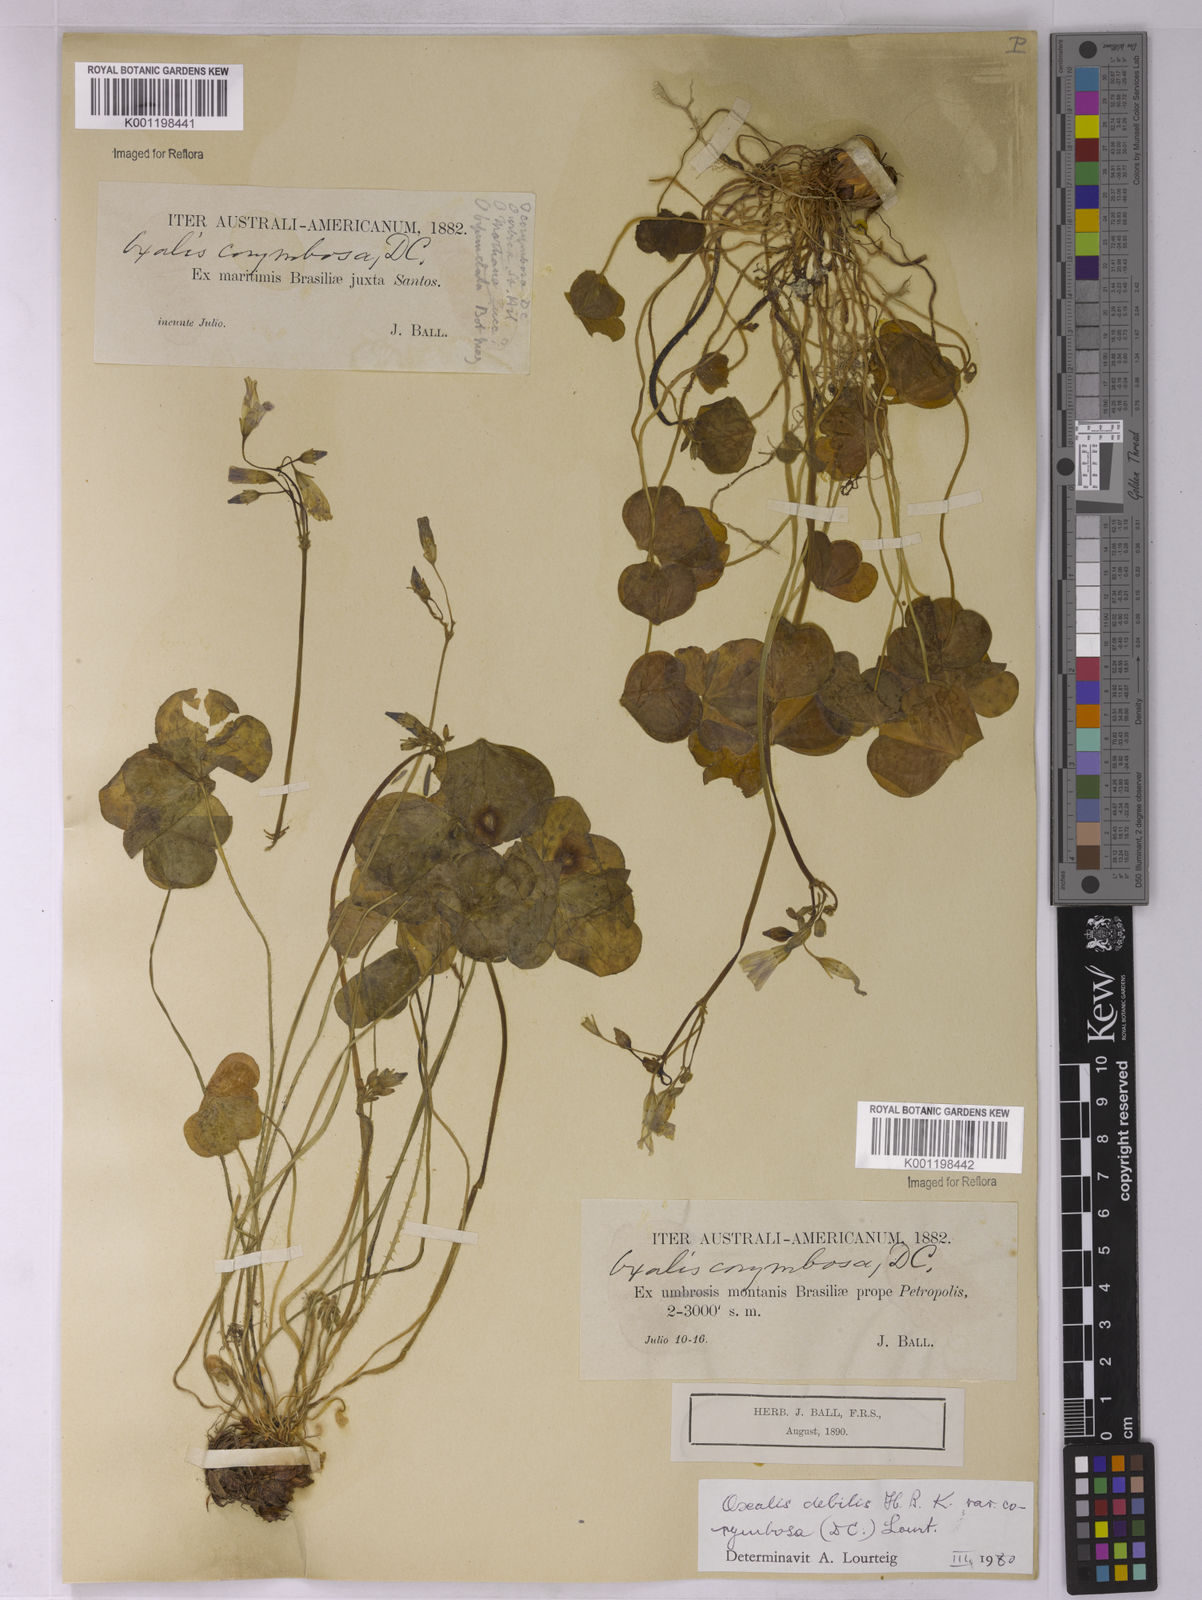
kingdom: Plantae
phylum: Tracheophyta
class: Magnoliopsida
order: Oxalidales
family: Oxalidaceae
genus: Oxalis
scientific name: Oxalis debilis
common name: Large-flowered pink-sorrel
